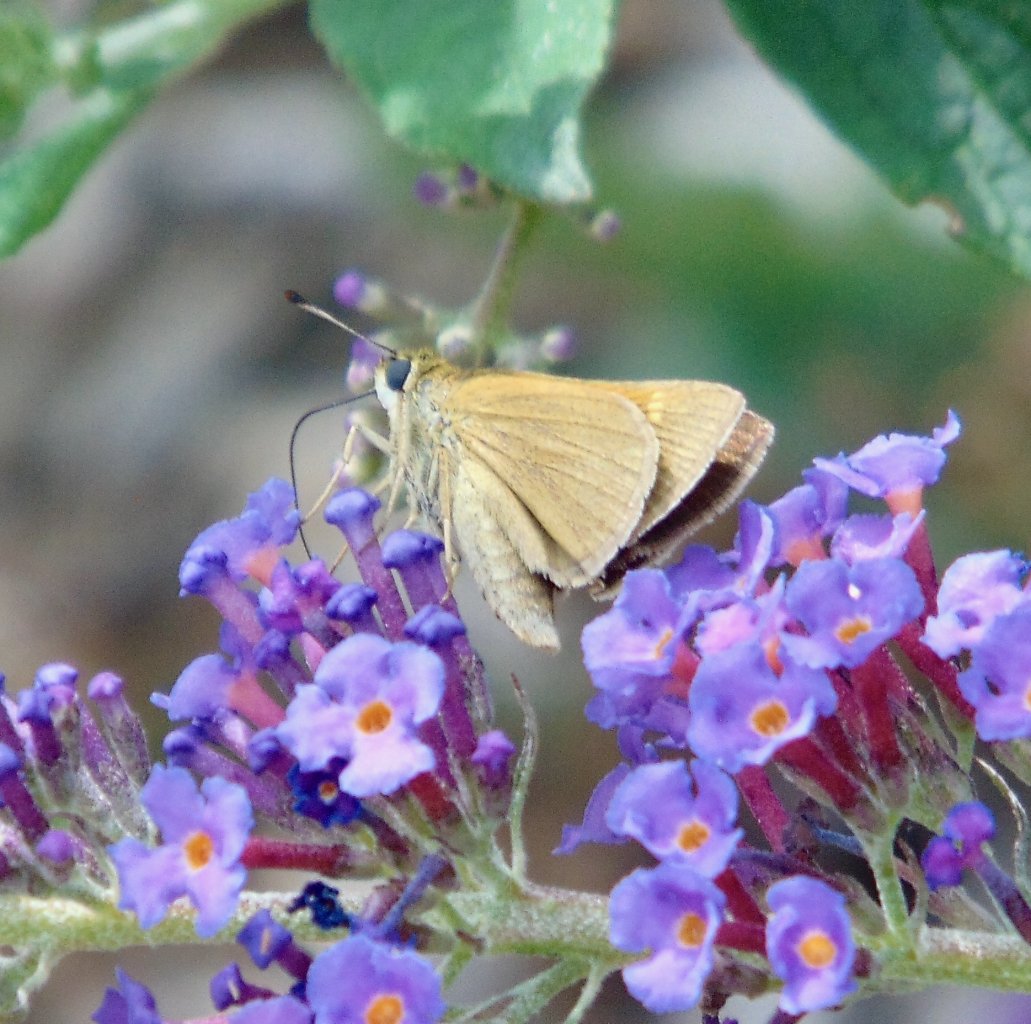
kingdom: Animalia
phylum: Arthropoda
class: Insecta
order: Lepidoptera
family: Hesperiidae
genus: Polites
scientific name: Polites themistocles
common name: Tawny-edged Skipper
